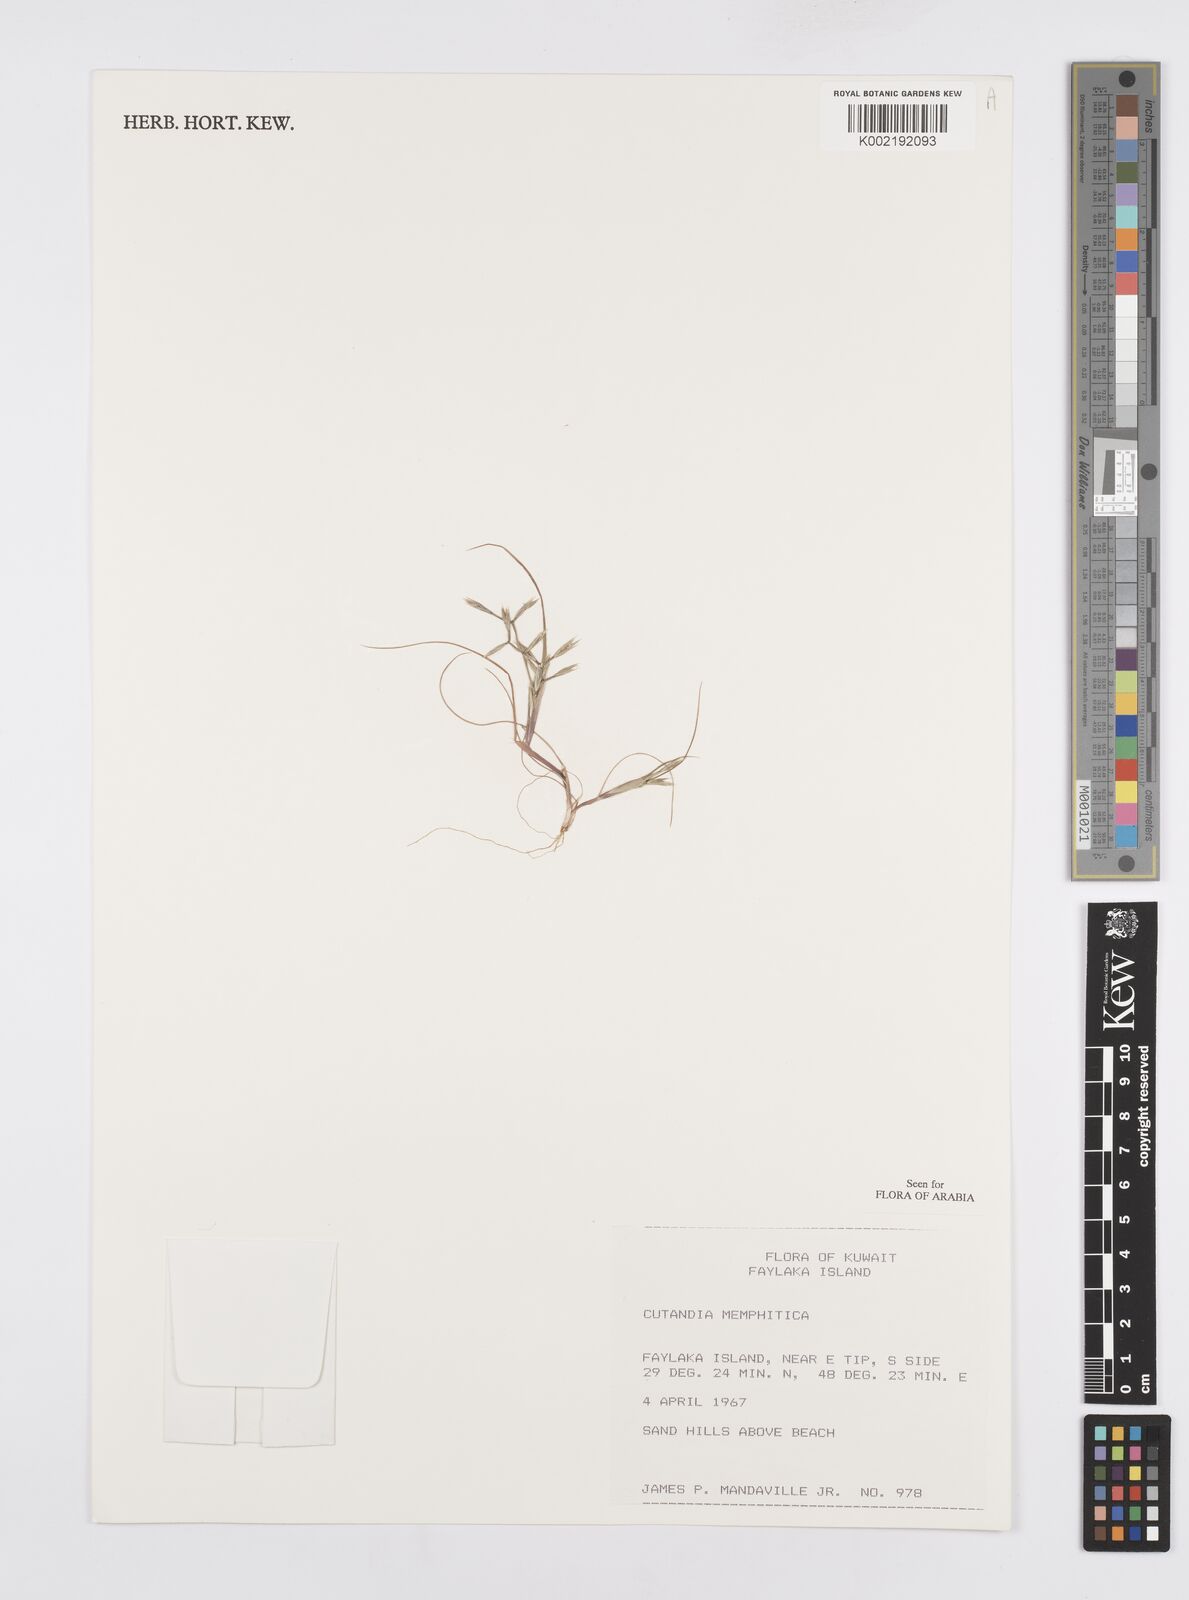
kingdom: Plantae
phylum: Tracheophyta
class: Liliopsida
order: Poales
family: Poaceae
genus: Cutandia
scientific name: Cutandia memphitica
